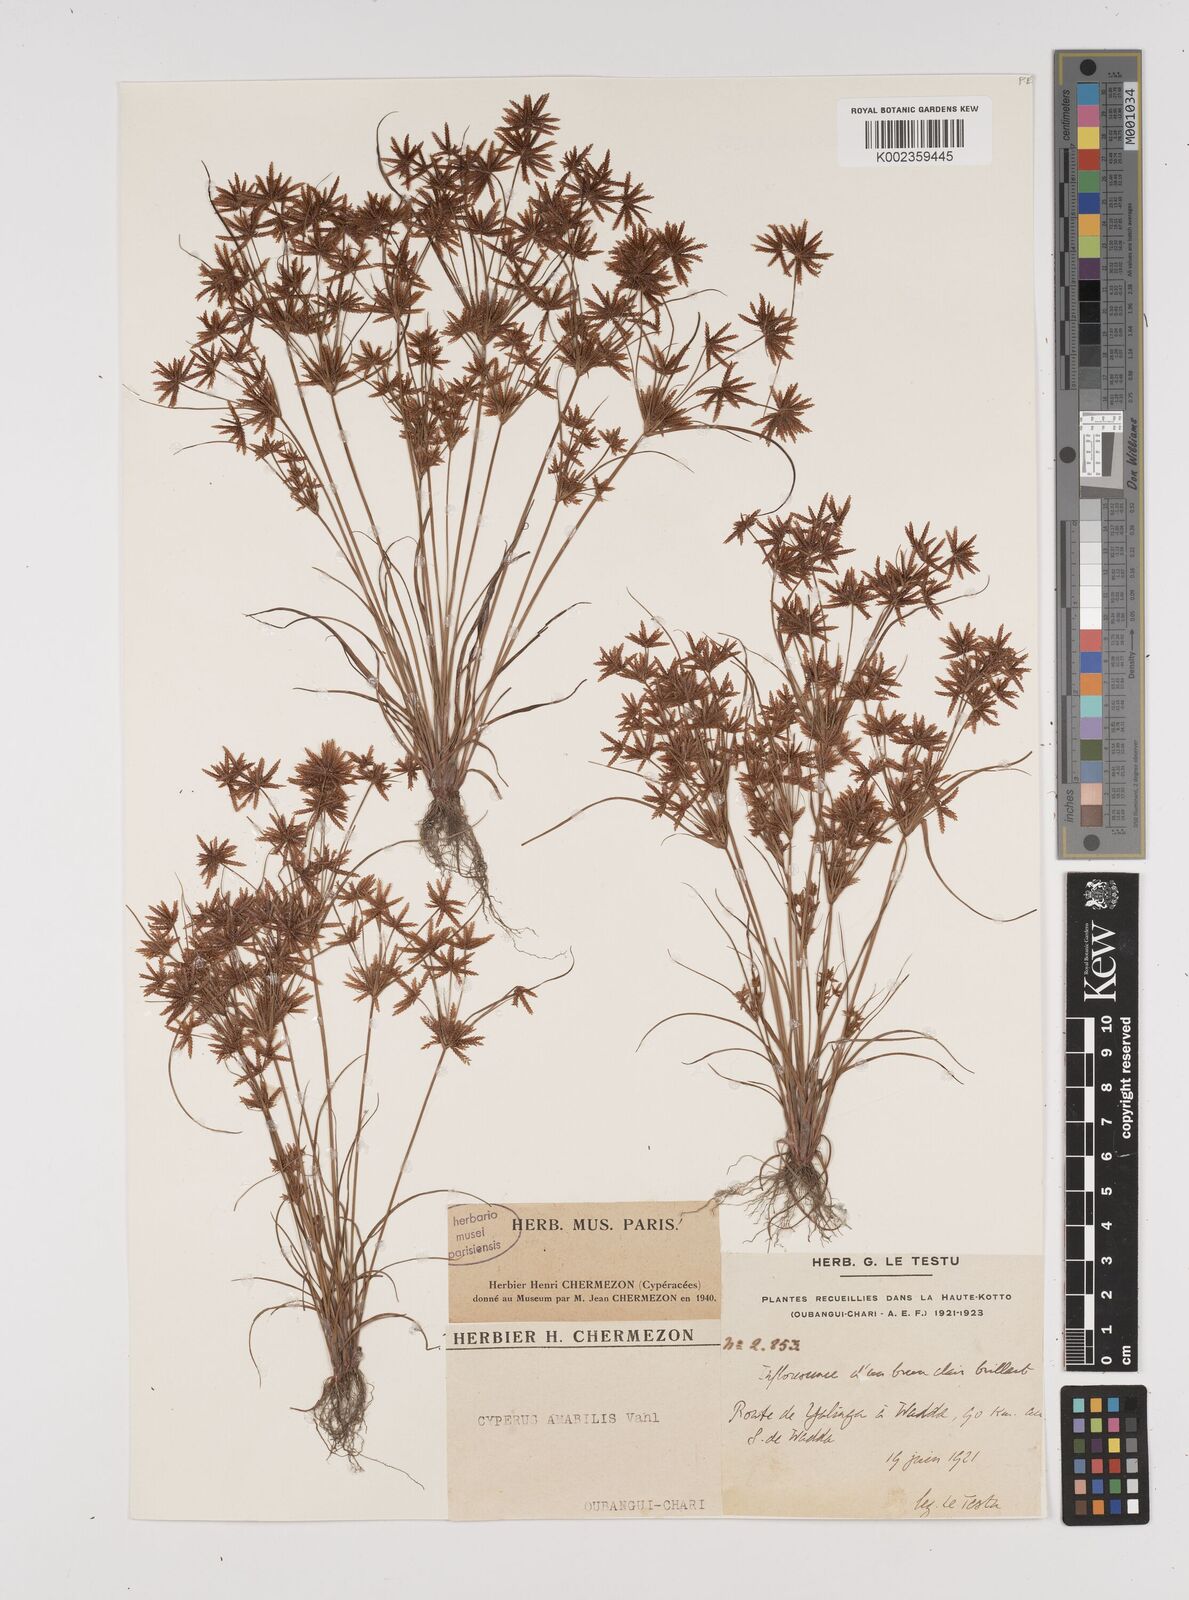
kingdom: Plantae
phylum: Tracheophyta
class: Liliopsida
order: Poales
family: Cyperaceae
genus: Cyperus
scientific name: Cyperus amabilis
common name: Foothill flat sedge
